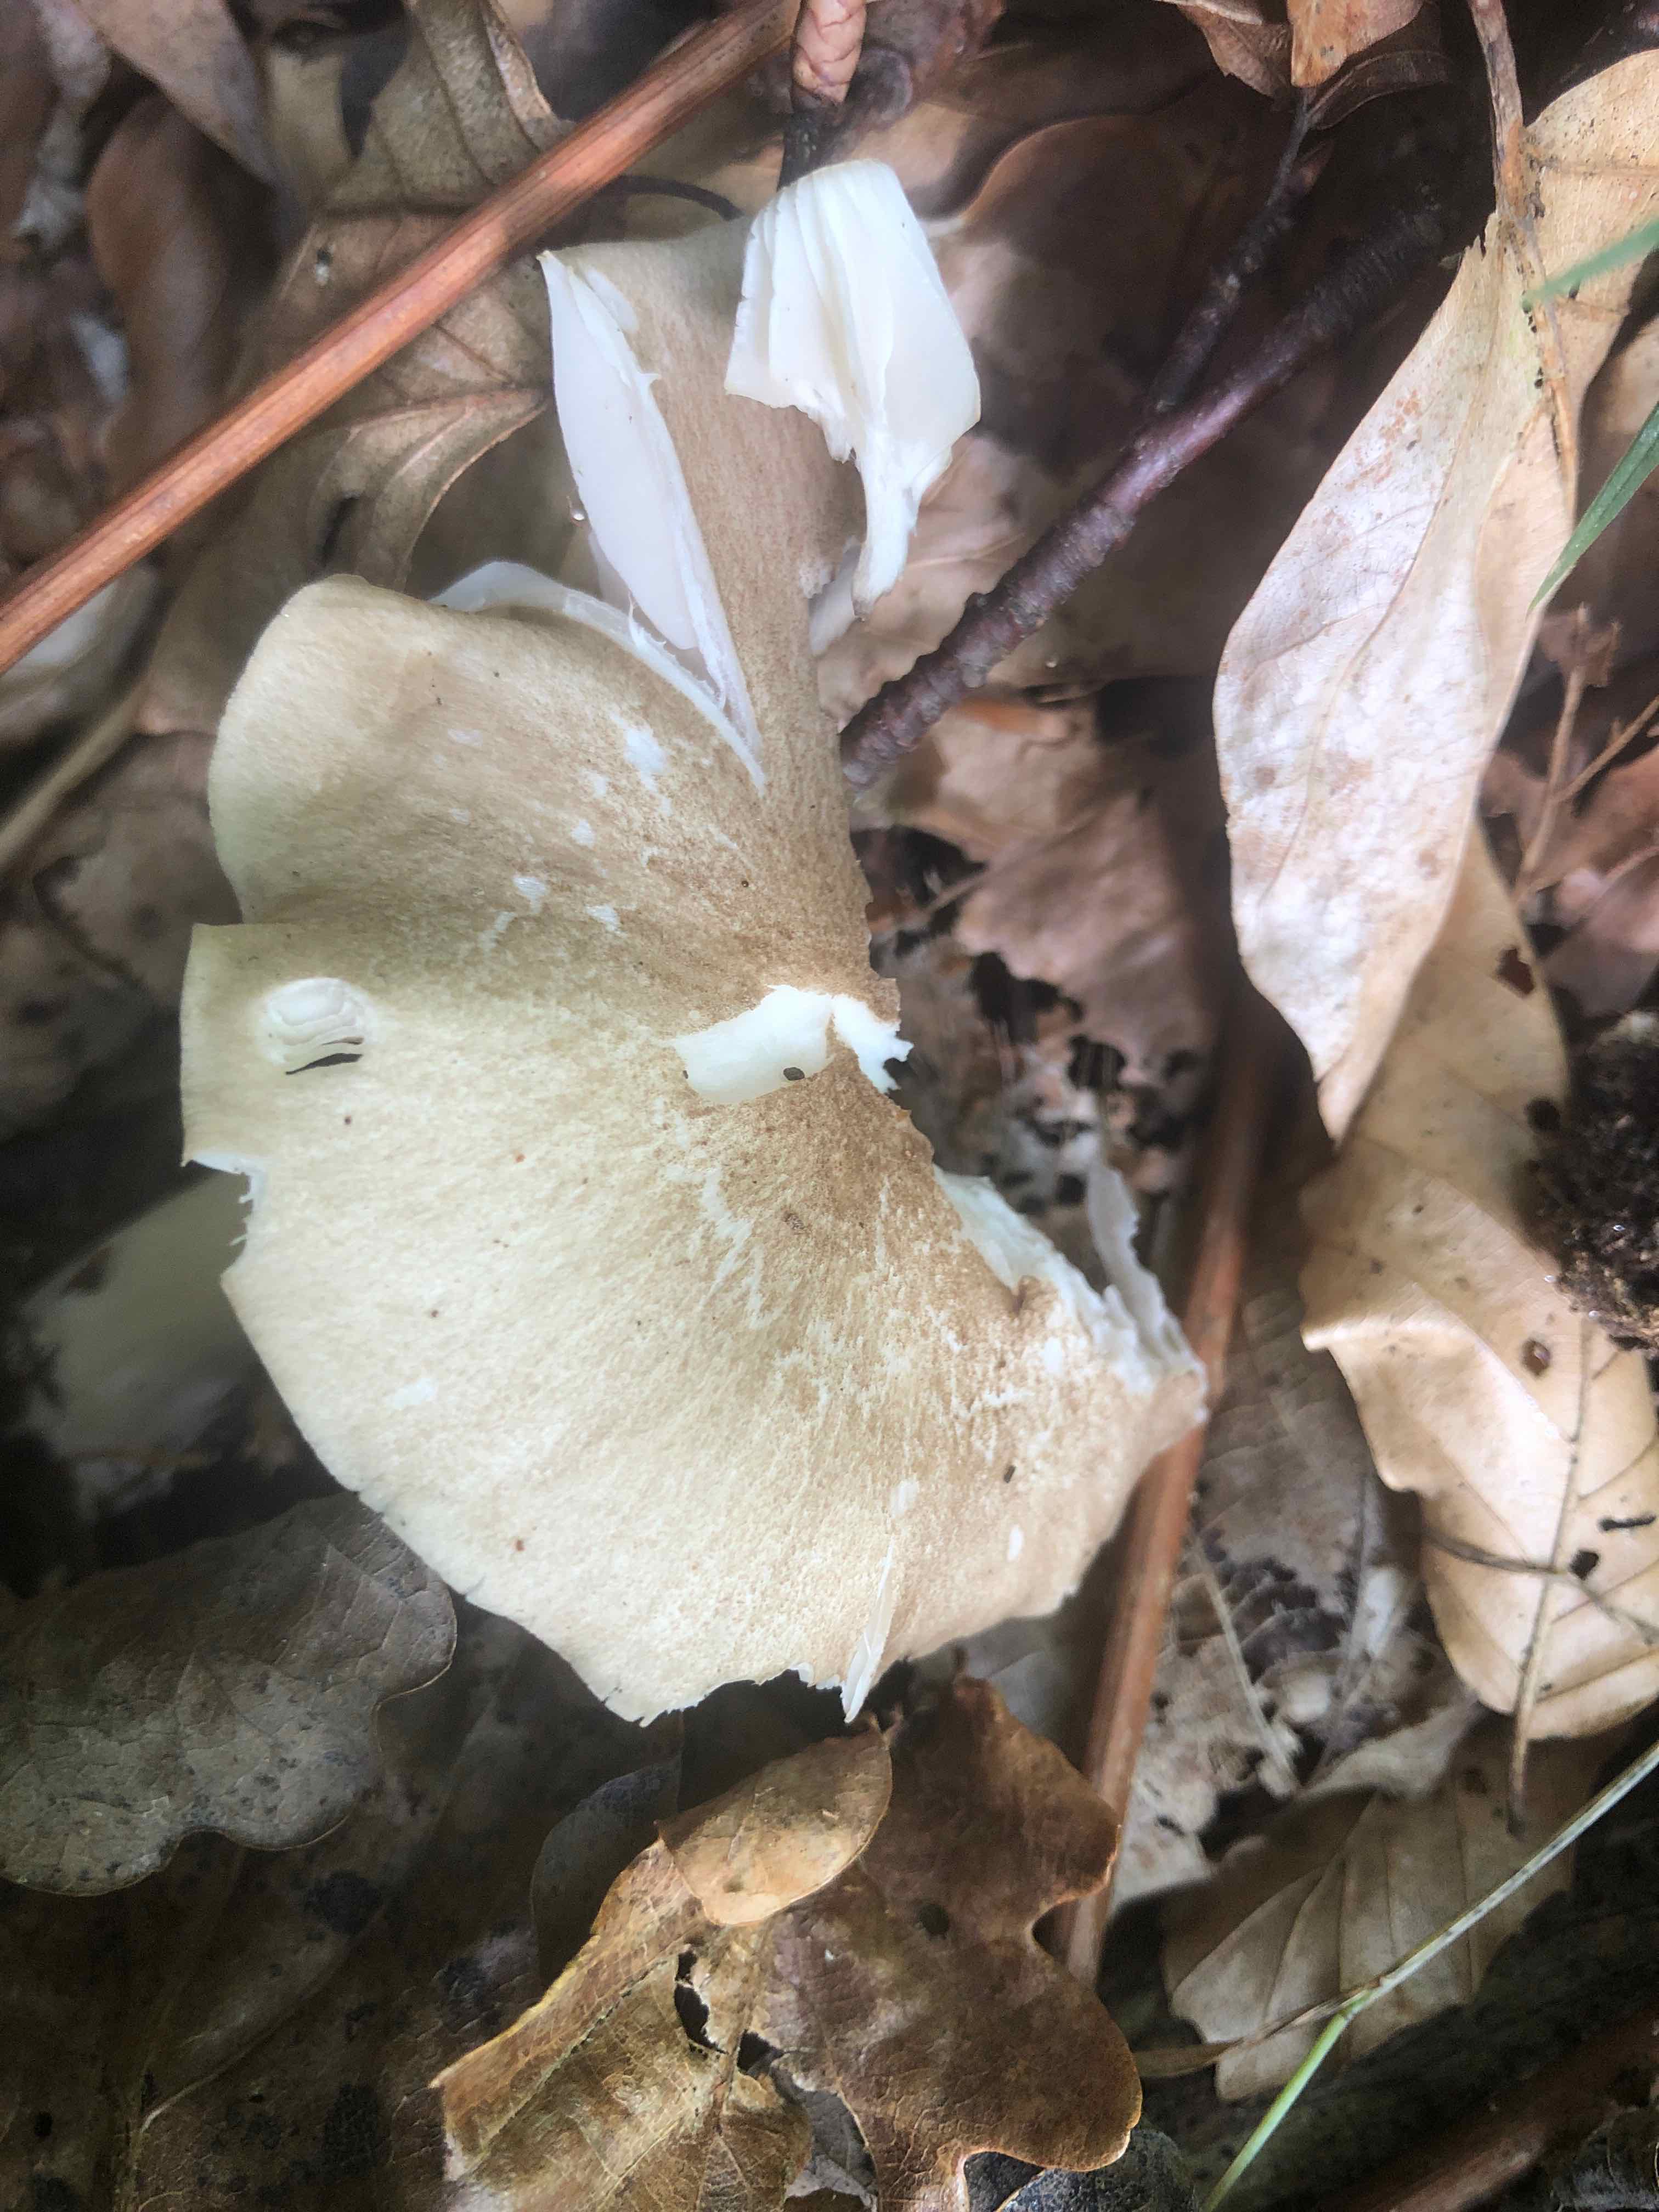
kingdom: Fungi
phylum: Basidiomycota
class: Agaricomycetes
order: Agaricales
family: Tricholomataceae
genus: Megacollybia
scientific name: Megacollybia platyphylla
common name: bredbladet væbnerhat
